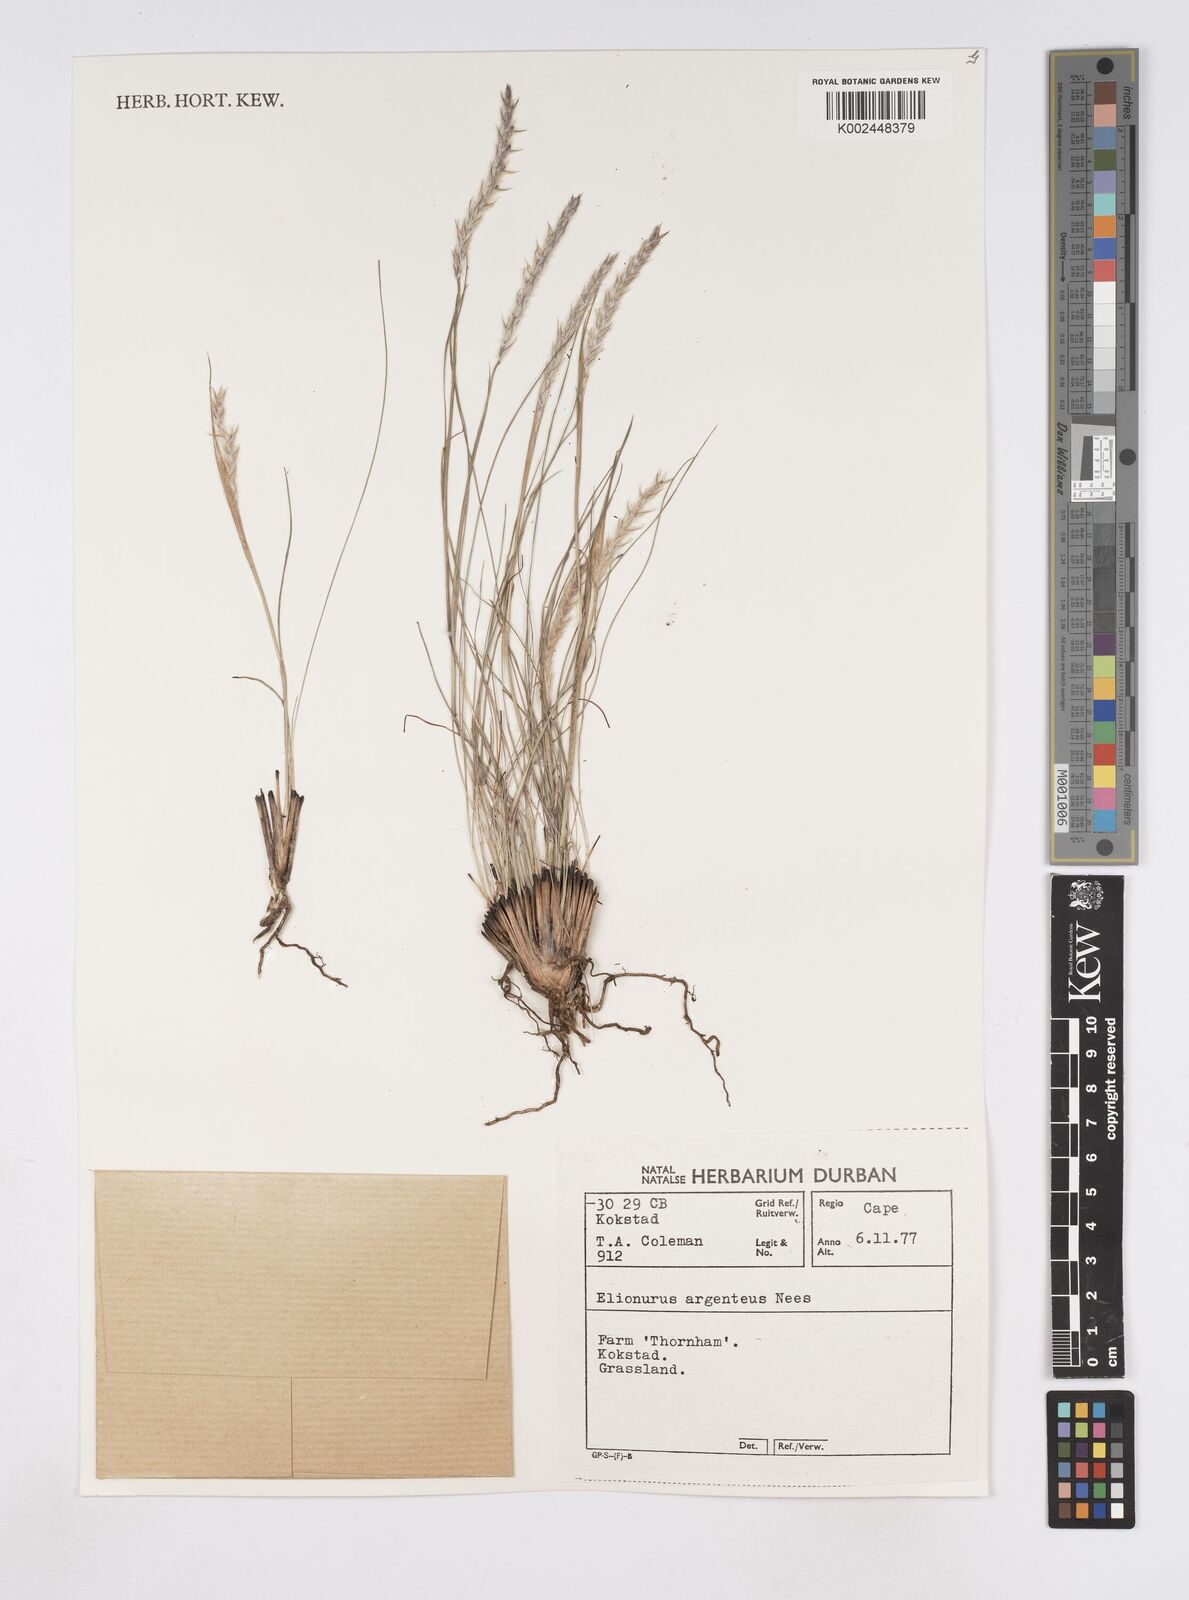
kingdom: Plantae
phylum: Tracheophyta
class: Liliopsida
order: Poales
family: Poaceae
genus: Elionurus
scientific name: Elionurus muticus
